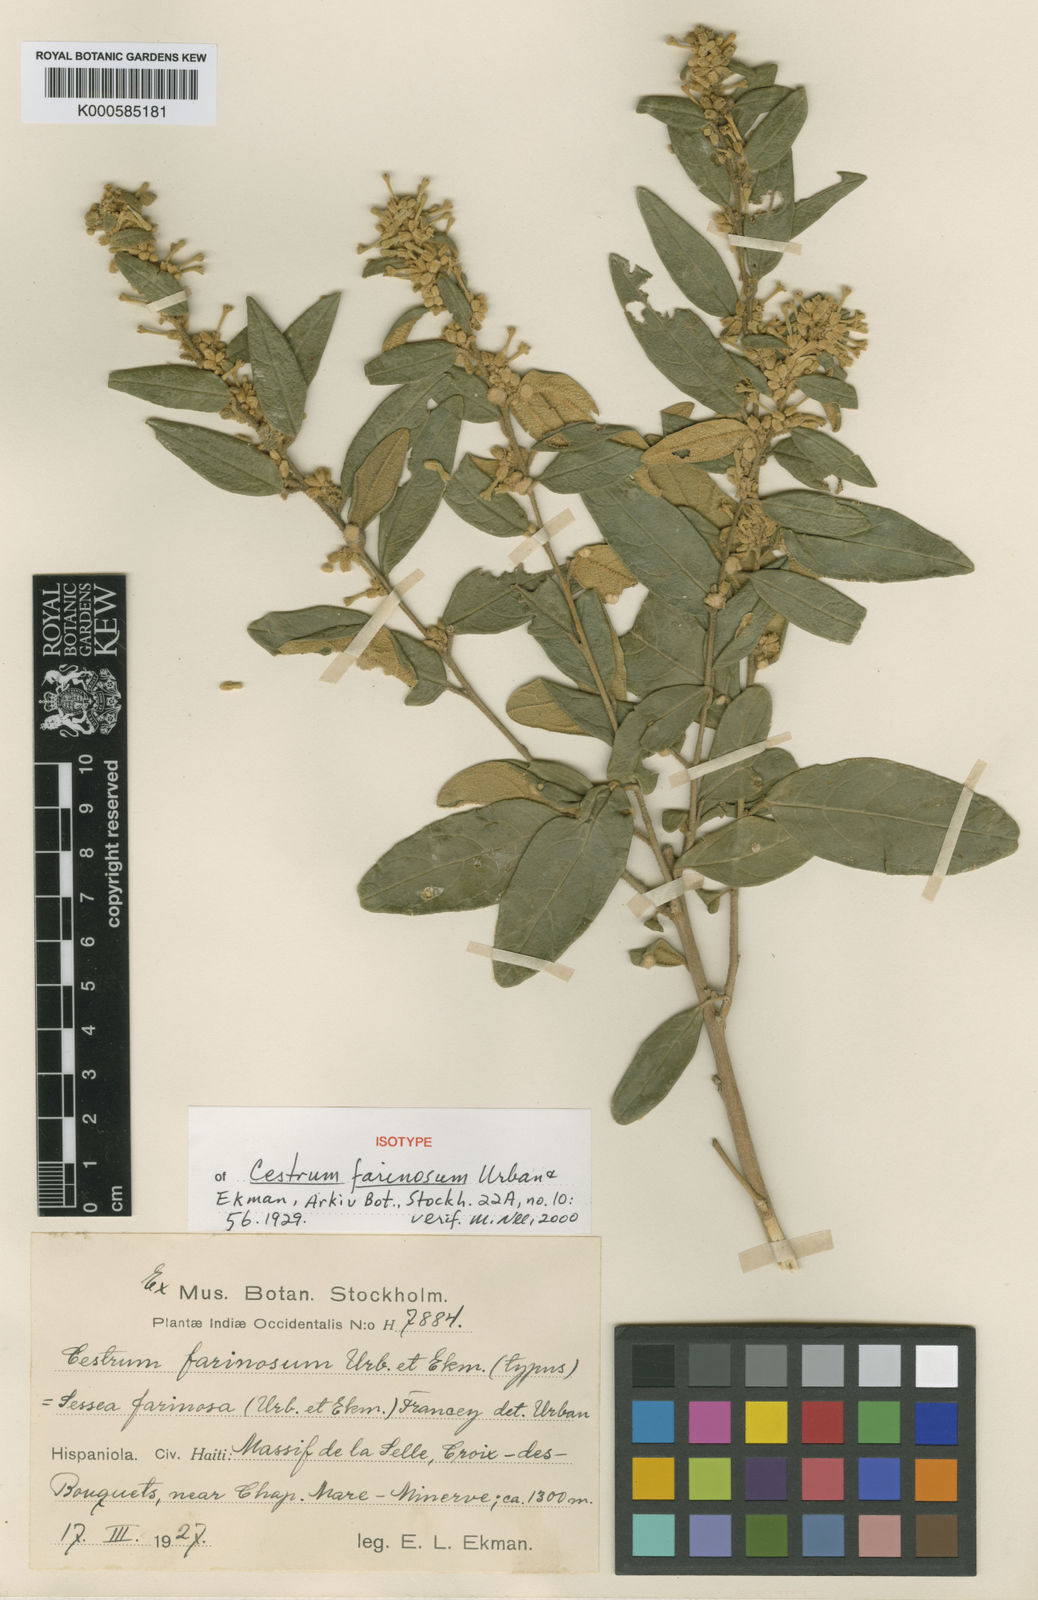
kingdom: Plantae
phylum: Tracheophyta
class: Magnoliopsida
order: Solanales
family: Solanaceae
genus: Cestrum
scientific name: Cestrum farinosum
